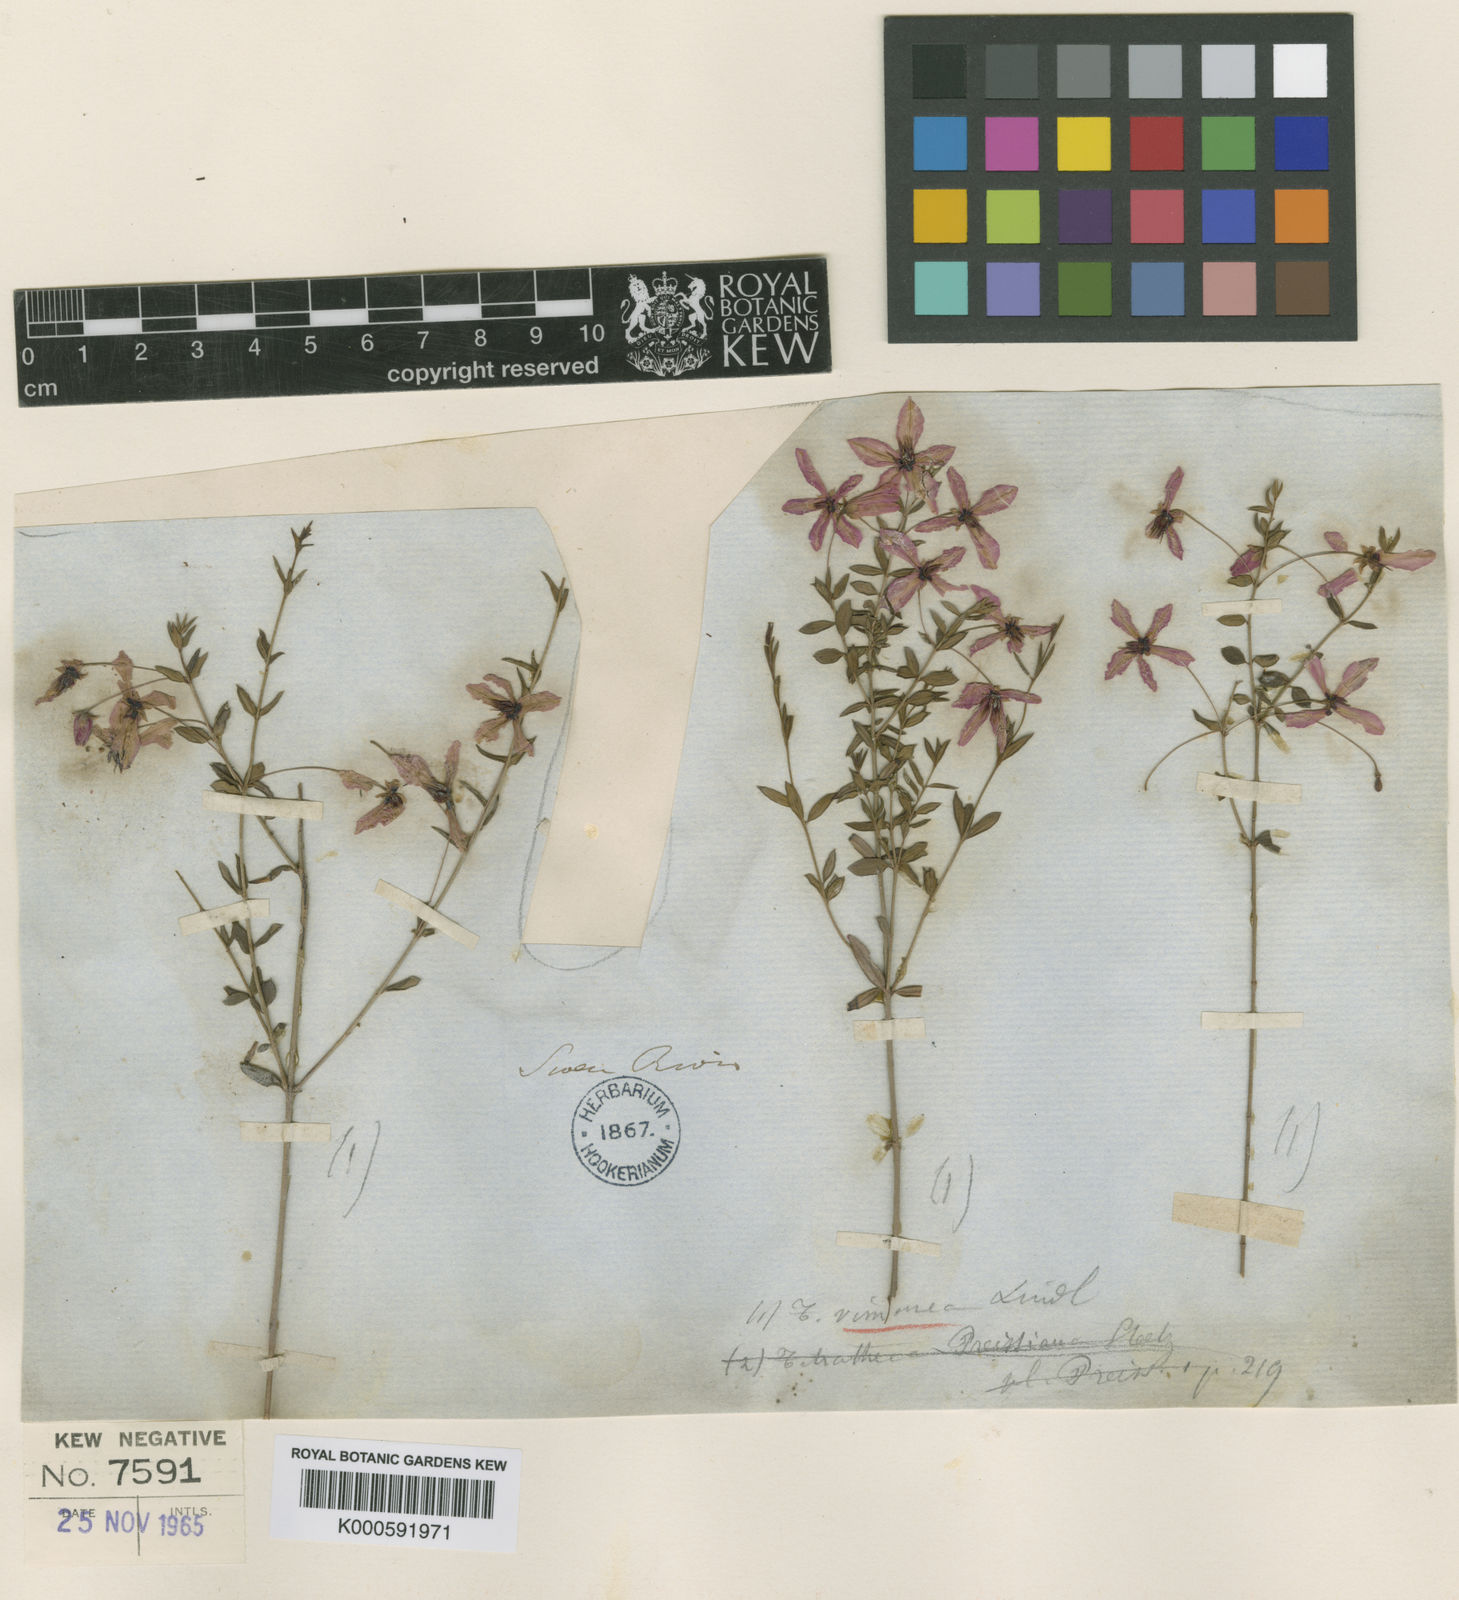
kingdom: Plantae
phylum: Tracheophyta
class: Magnoliopsida
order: Oxalidales
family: Elaeocarpaceae
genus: Tetratheca
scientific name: Tetratheca hirsuta
